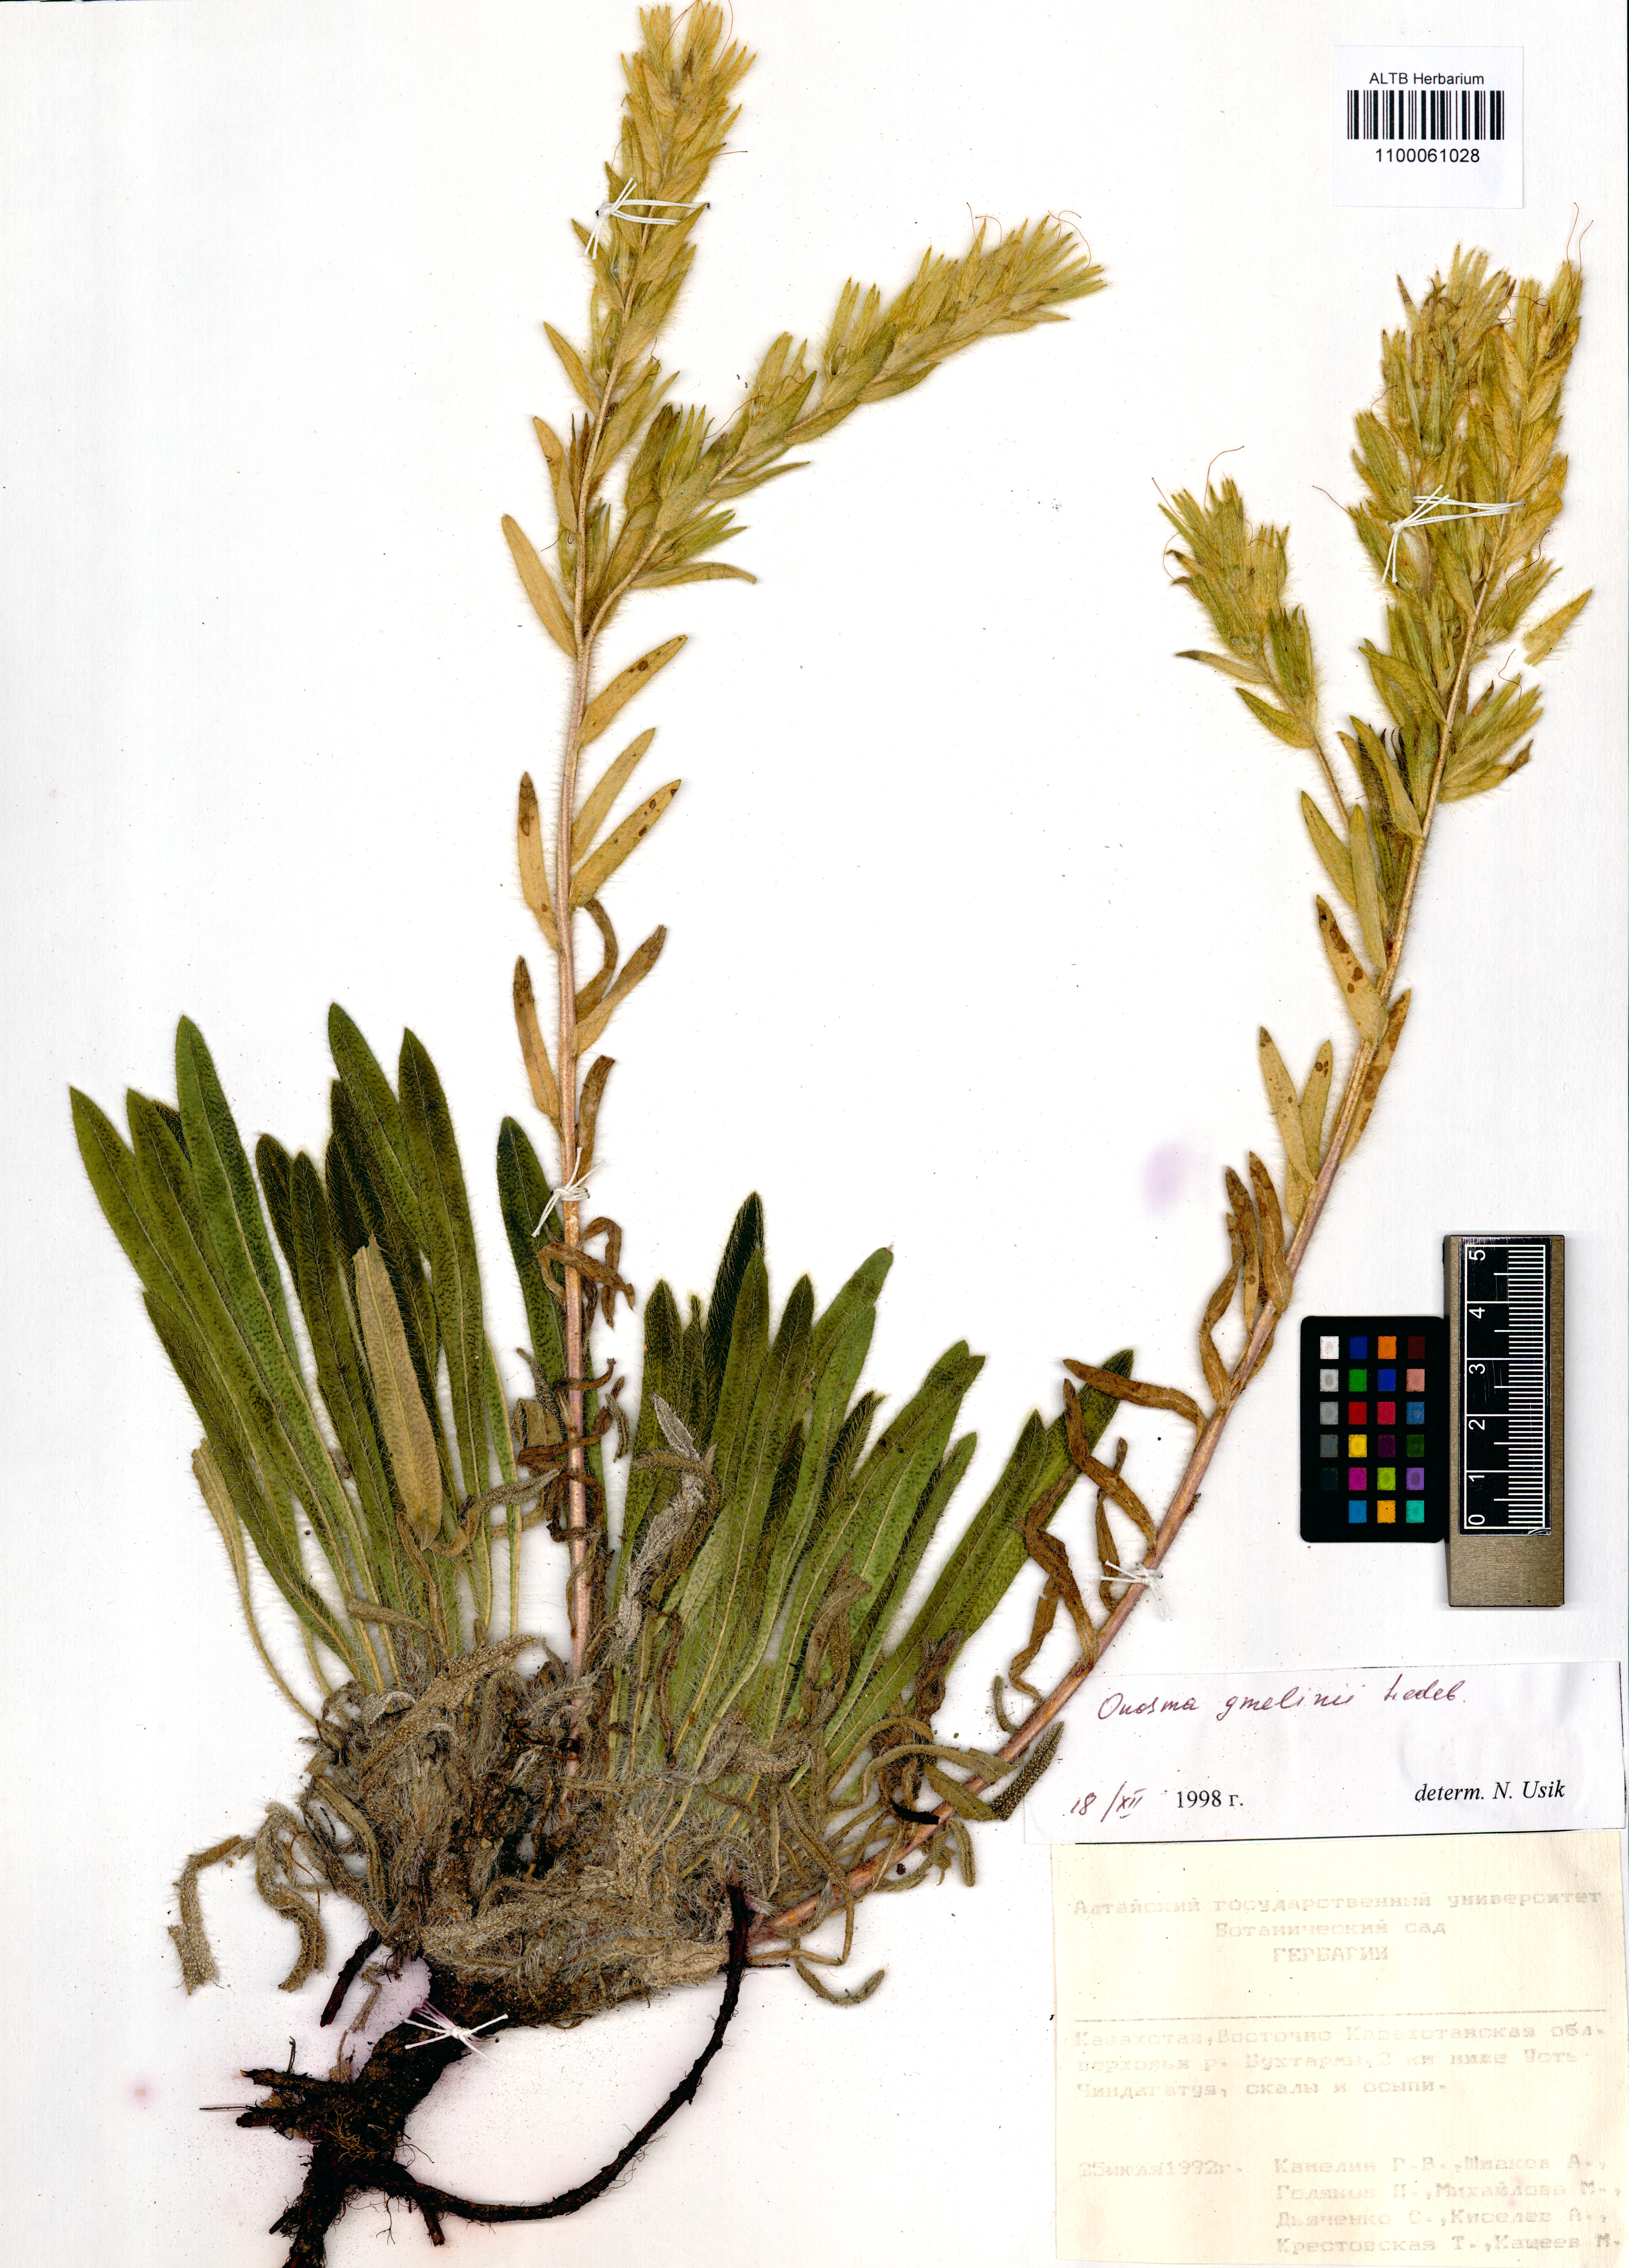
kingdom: Plantae
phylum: Tracheophyta
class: Magnoliopsida
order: Boraginales
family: Boraginaceae
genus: Onosma
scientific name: Onosma gmelinii
